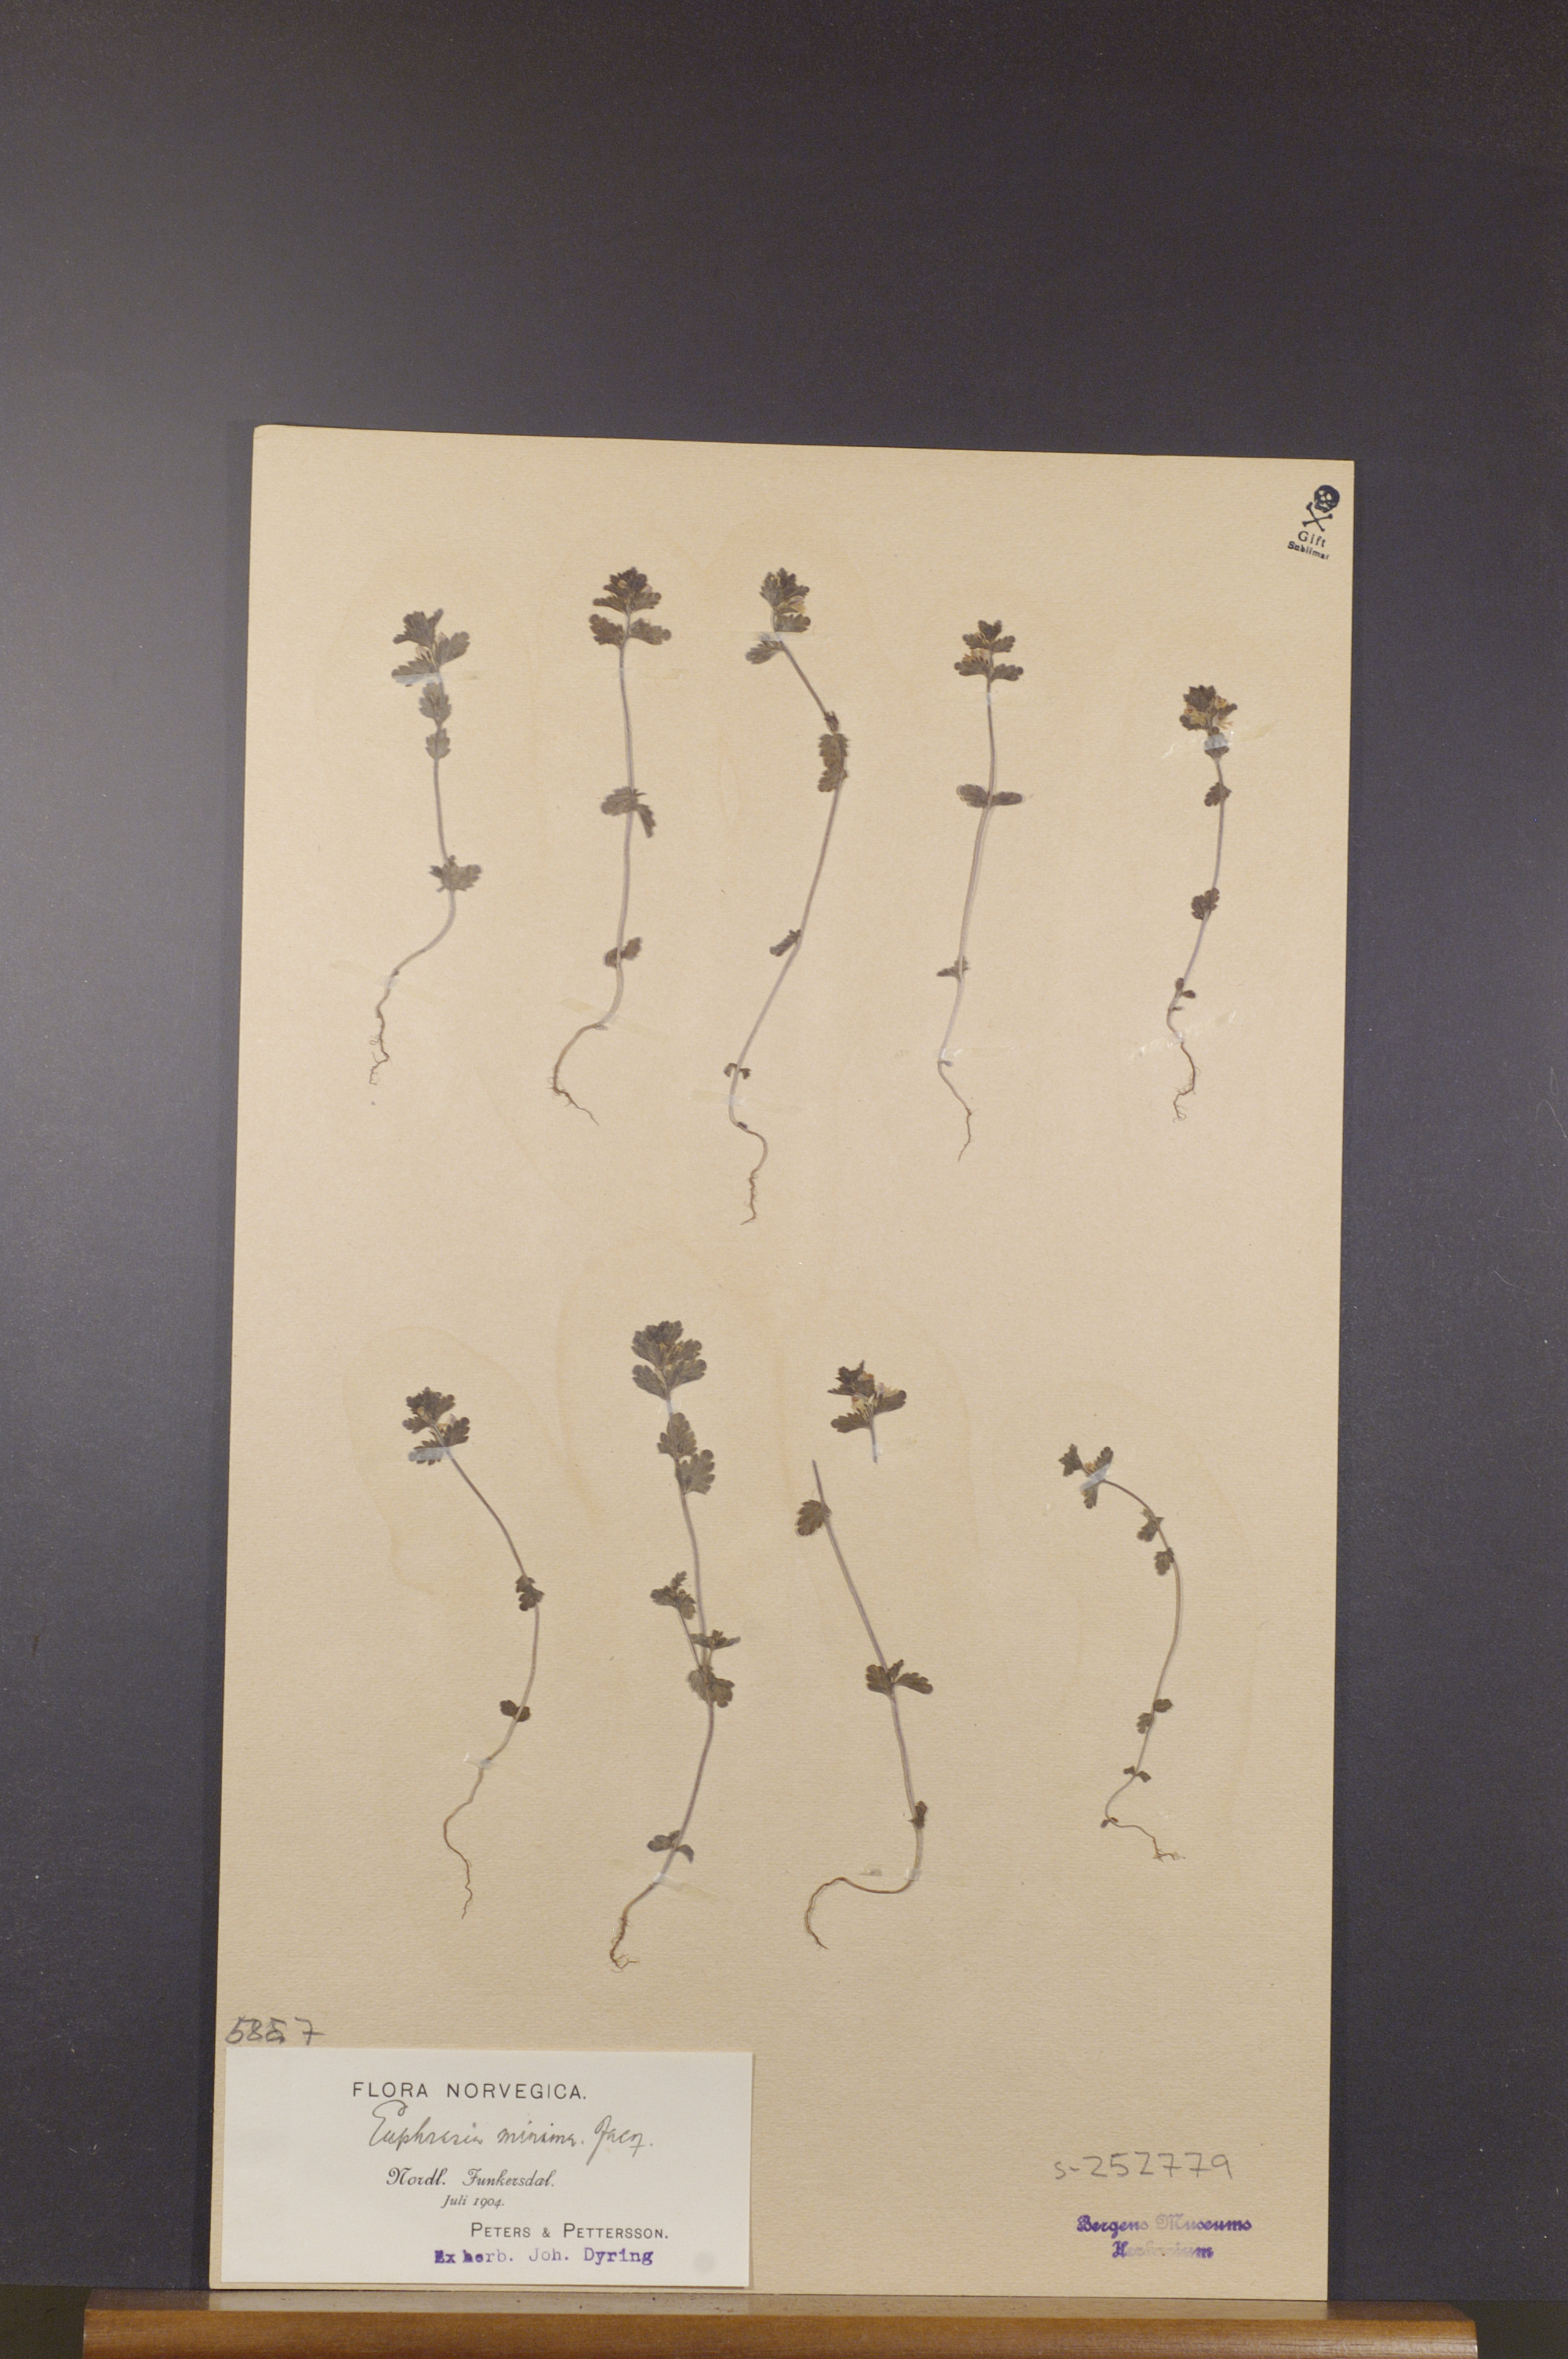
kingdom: Plantae
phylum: Tracheophyta
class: Magnoliopsida
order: Lamiales
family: Orobanchaceae
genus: Euphrasia
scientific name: Euphrasia minima
